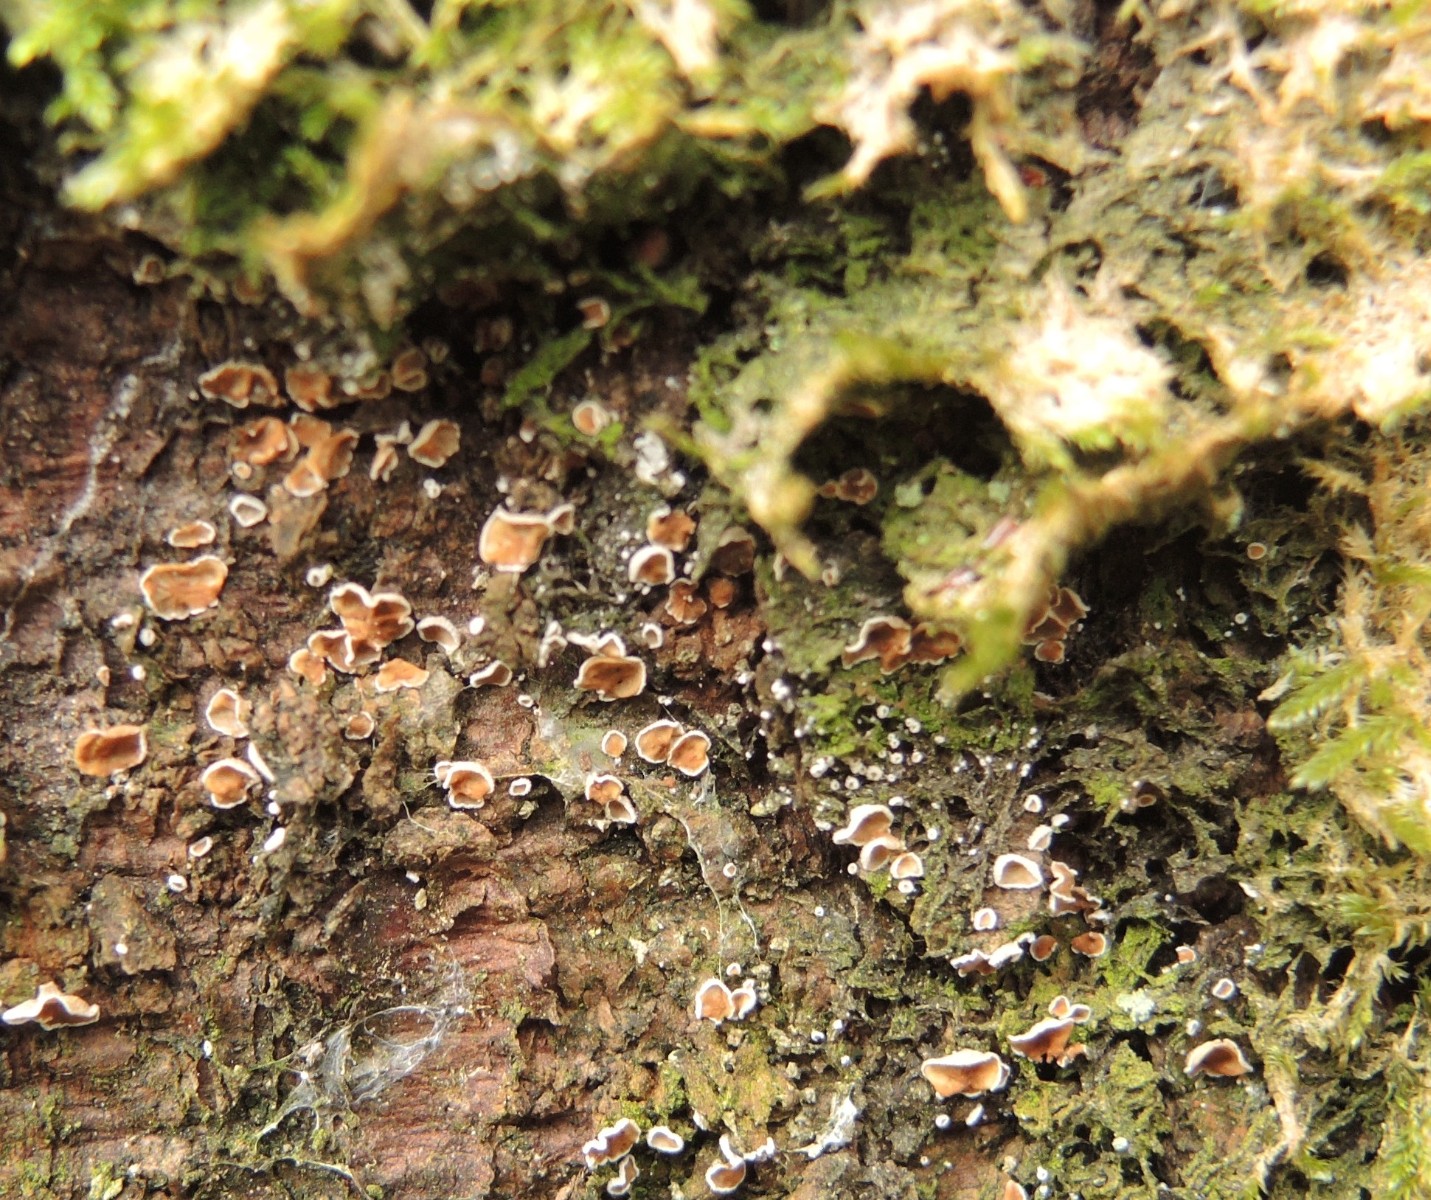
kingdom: Fungi
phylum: Basidiomycota
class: Agaricomycetes
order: Agaricales
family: Chromocyphellaceae
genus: Chromocyphella
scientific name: Chromocyphella muscicola
